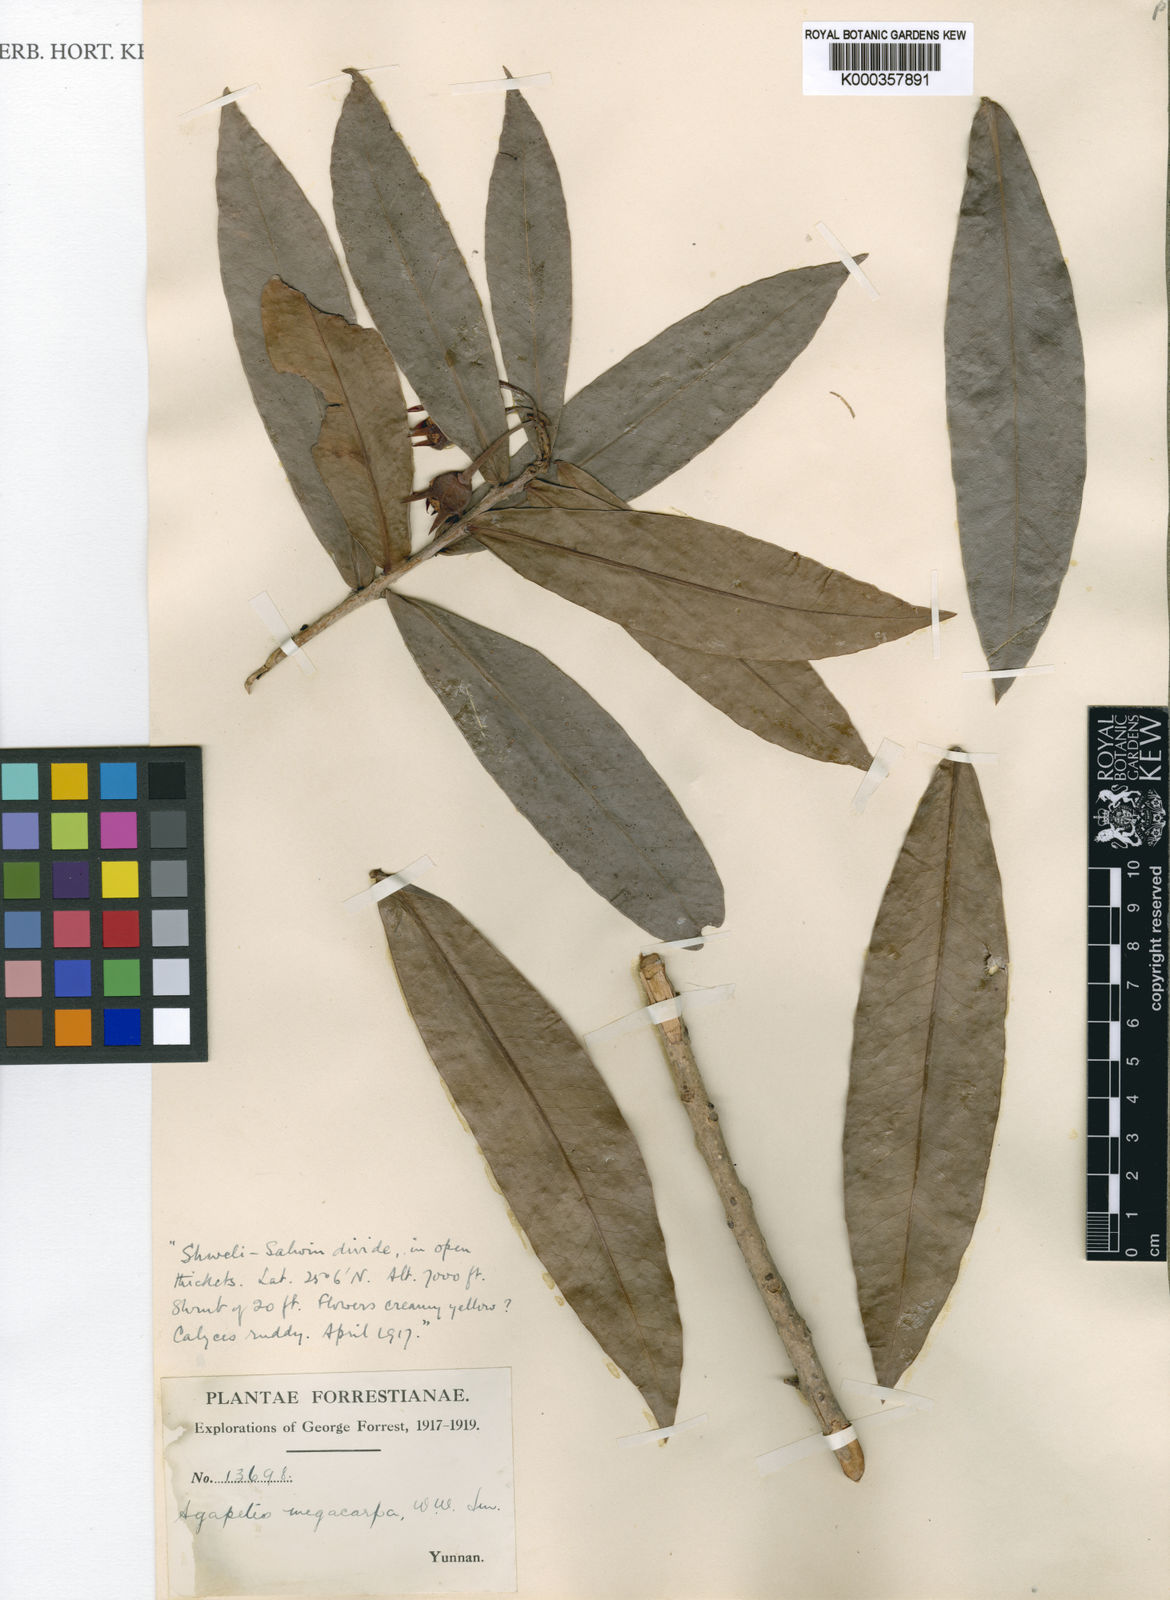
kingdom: Plantae
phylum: Tracheophyta
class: Magnoliopsida
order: Ericales
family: Ericaceae
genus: Agapetes
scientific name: Agapetes megacarpa
